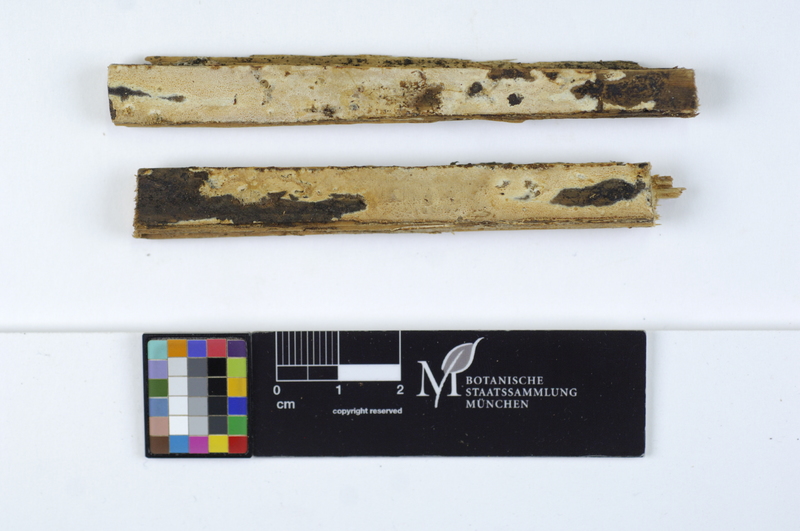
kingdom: Fungi
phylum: Basidiomycota
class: Agaricomycetes
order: Polyporales
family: Dacryobolaceae
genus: Dacryobolus
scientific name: Dacryobolus sudans
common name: Weeping toothcrust
